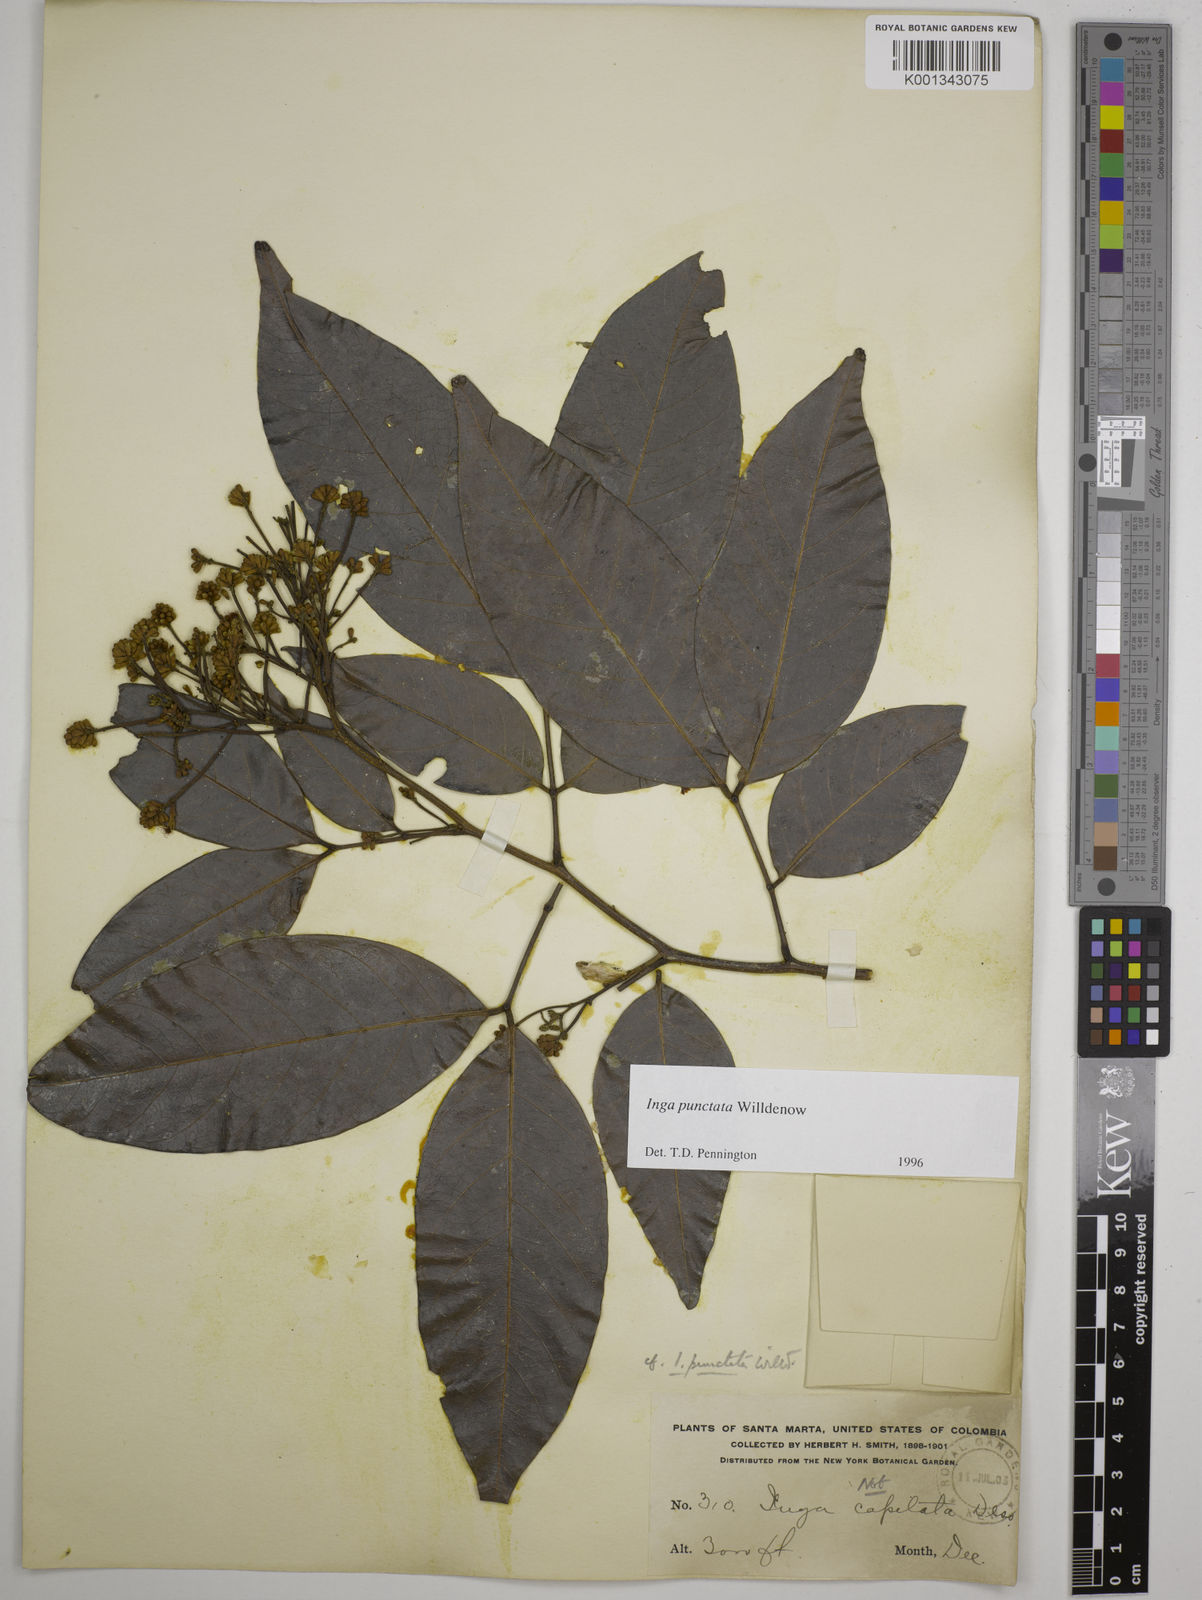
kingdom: Plantae
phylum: Tracheophyta
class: Magnoliopsida
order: Fabales
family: Fabaceae
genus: Inga
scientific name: Inga punctata
